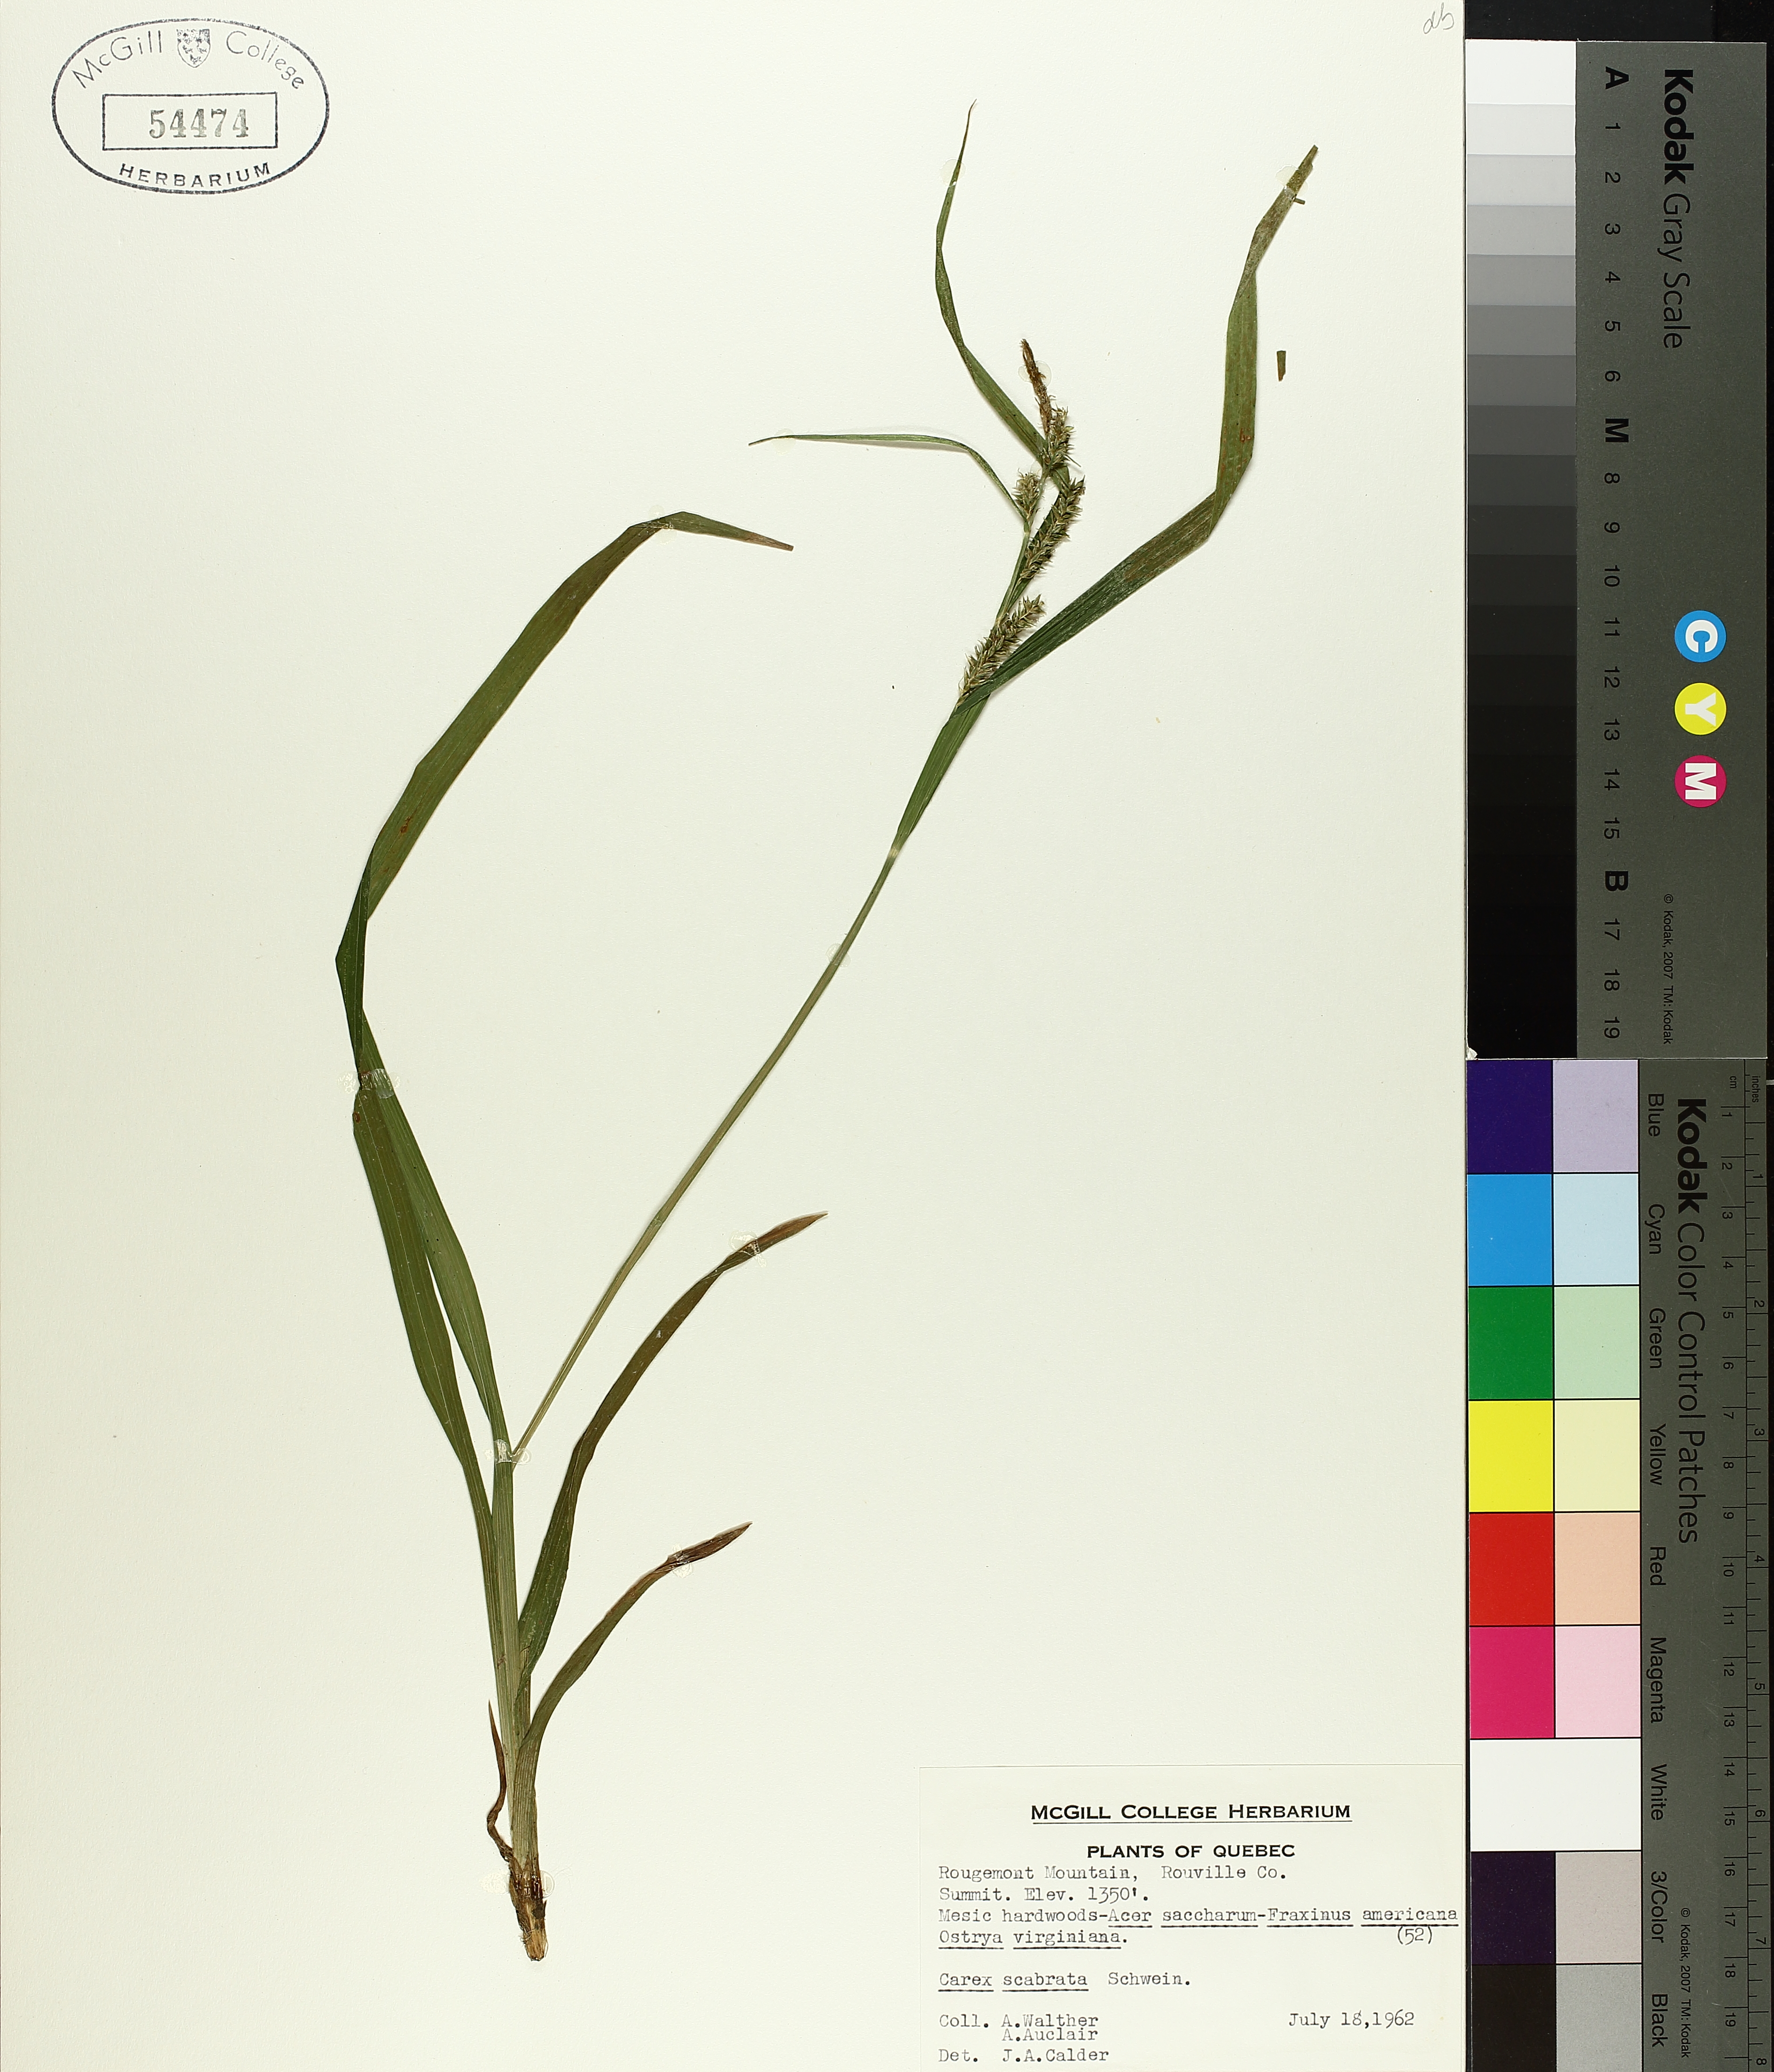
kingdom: Plantae
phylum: Tracheophyta
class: Liliopsida
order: Poales
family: Cyperaceae
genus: Carex
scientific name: Carex saxatilis
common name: Russet sedge
